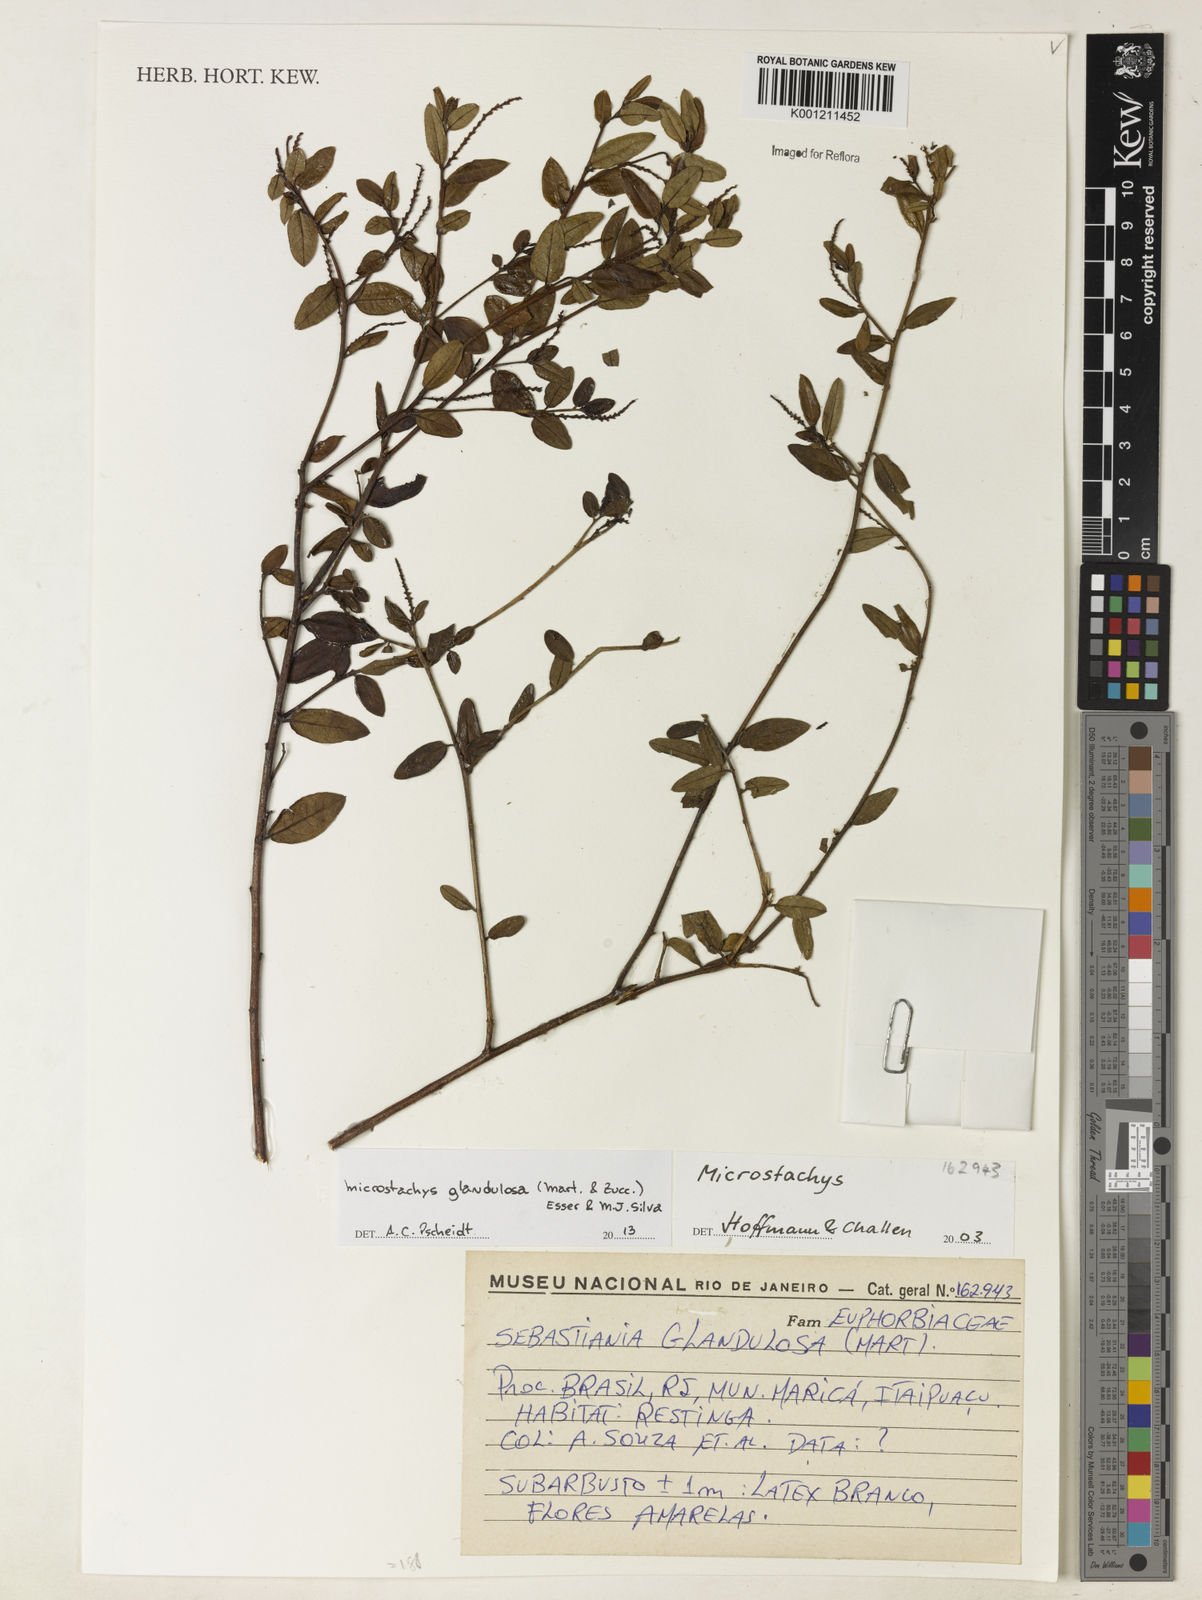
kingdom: Plantae
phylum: Tracheophyta
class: Magnoliopsida
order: Malpighiales
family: Euphorbiaceae
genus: Microstachys
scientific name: Microstachys glandulosa
